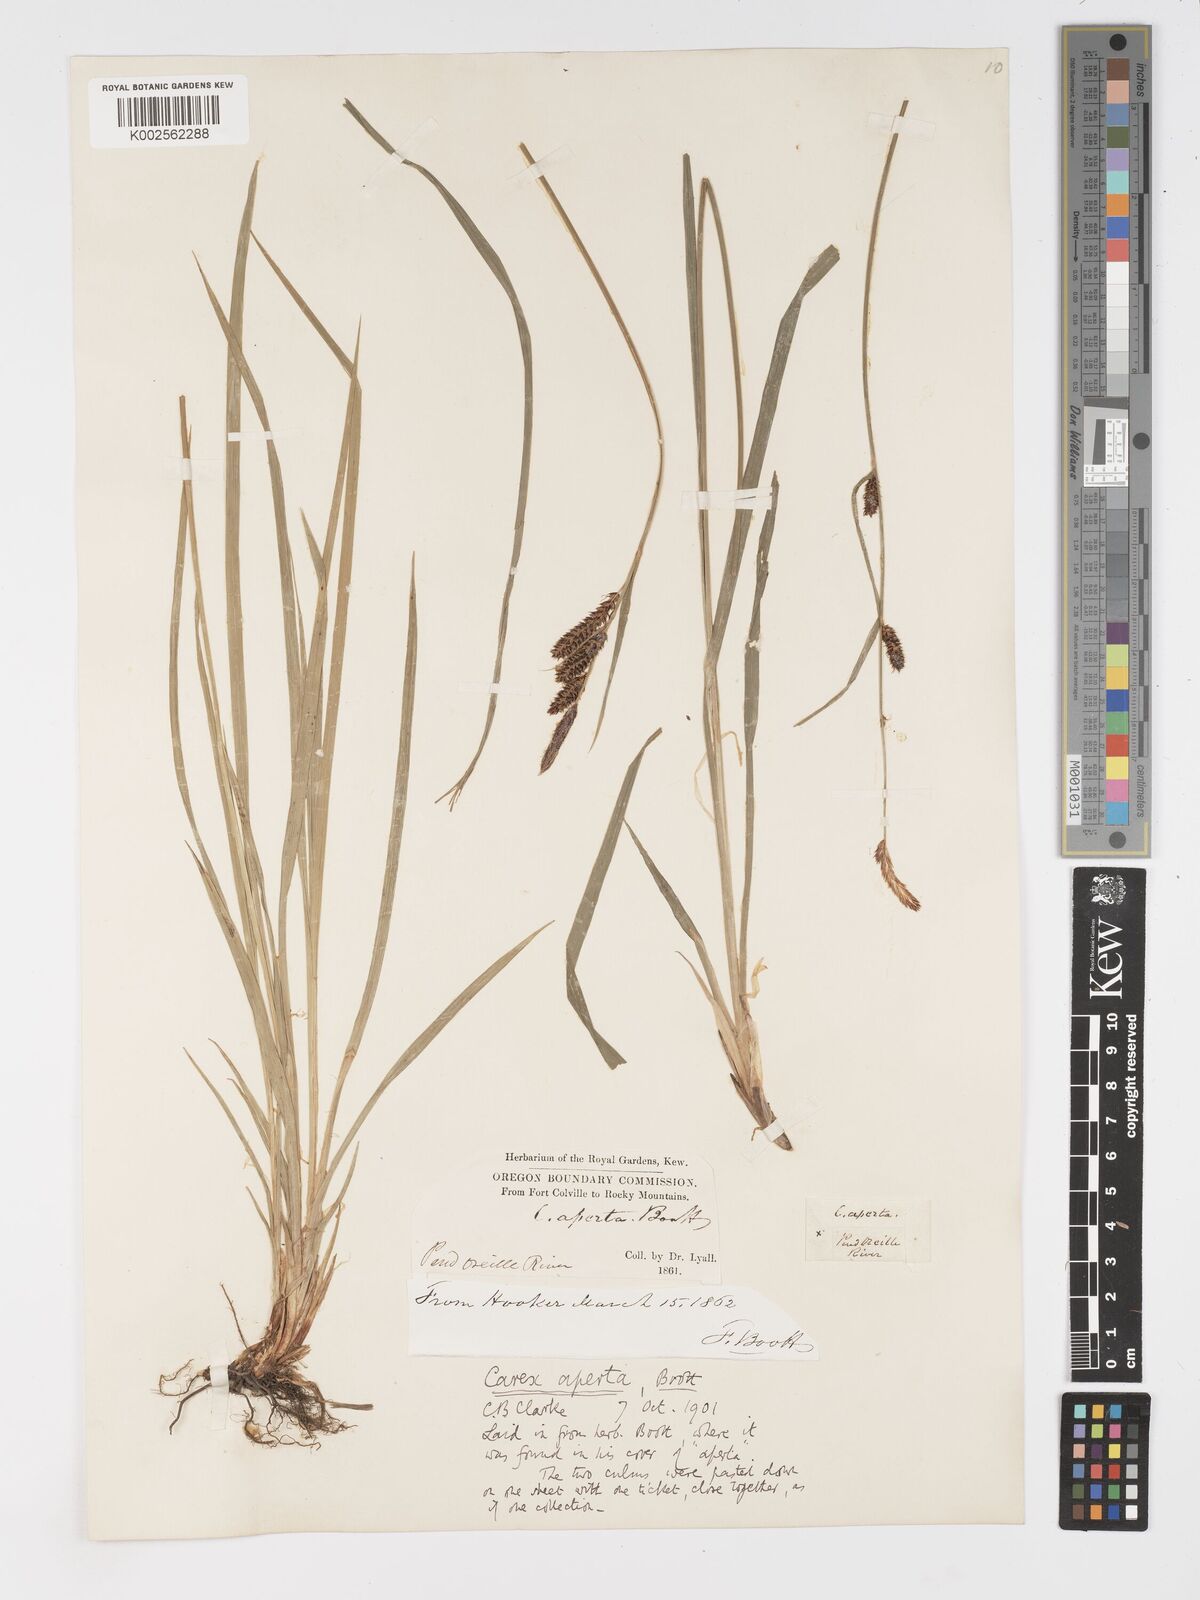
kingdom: Plantae
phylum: Tracheophyta
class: Liliopsida
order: Poales
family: Cyperaceae
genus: Carex
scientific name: Carex aperta
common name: Columbia sedge
